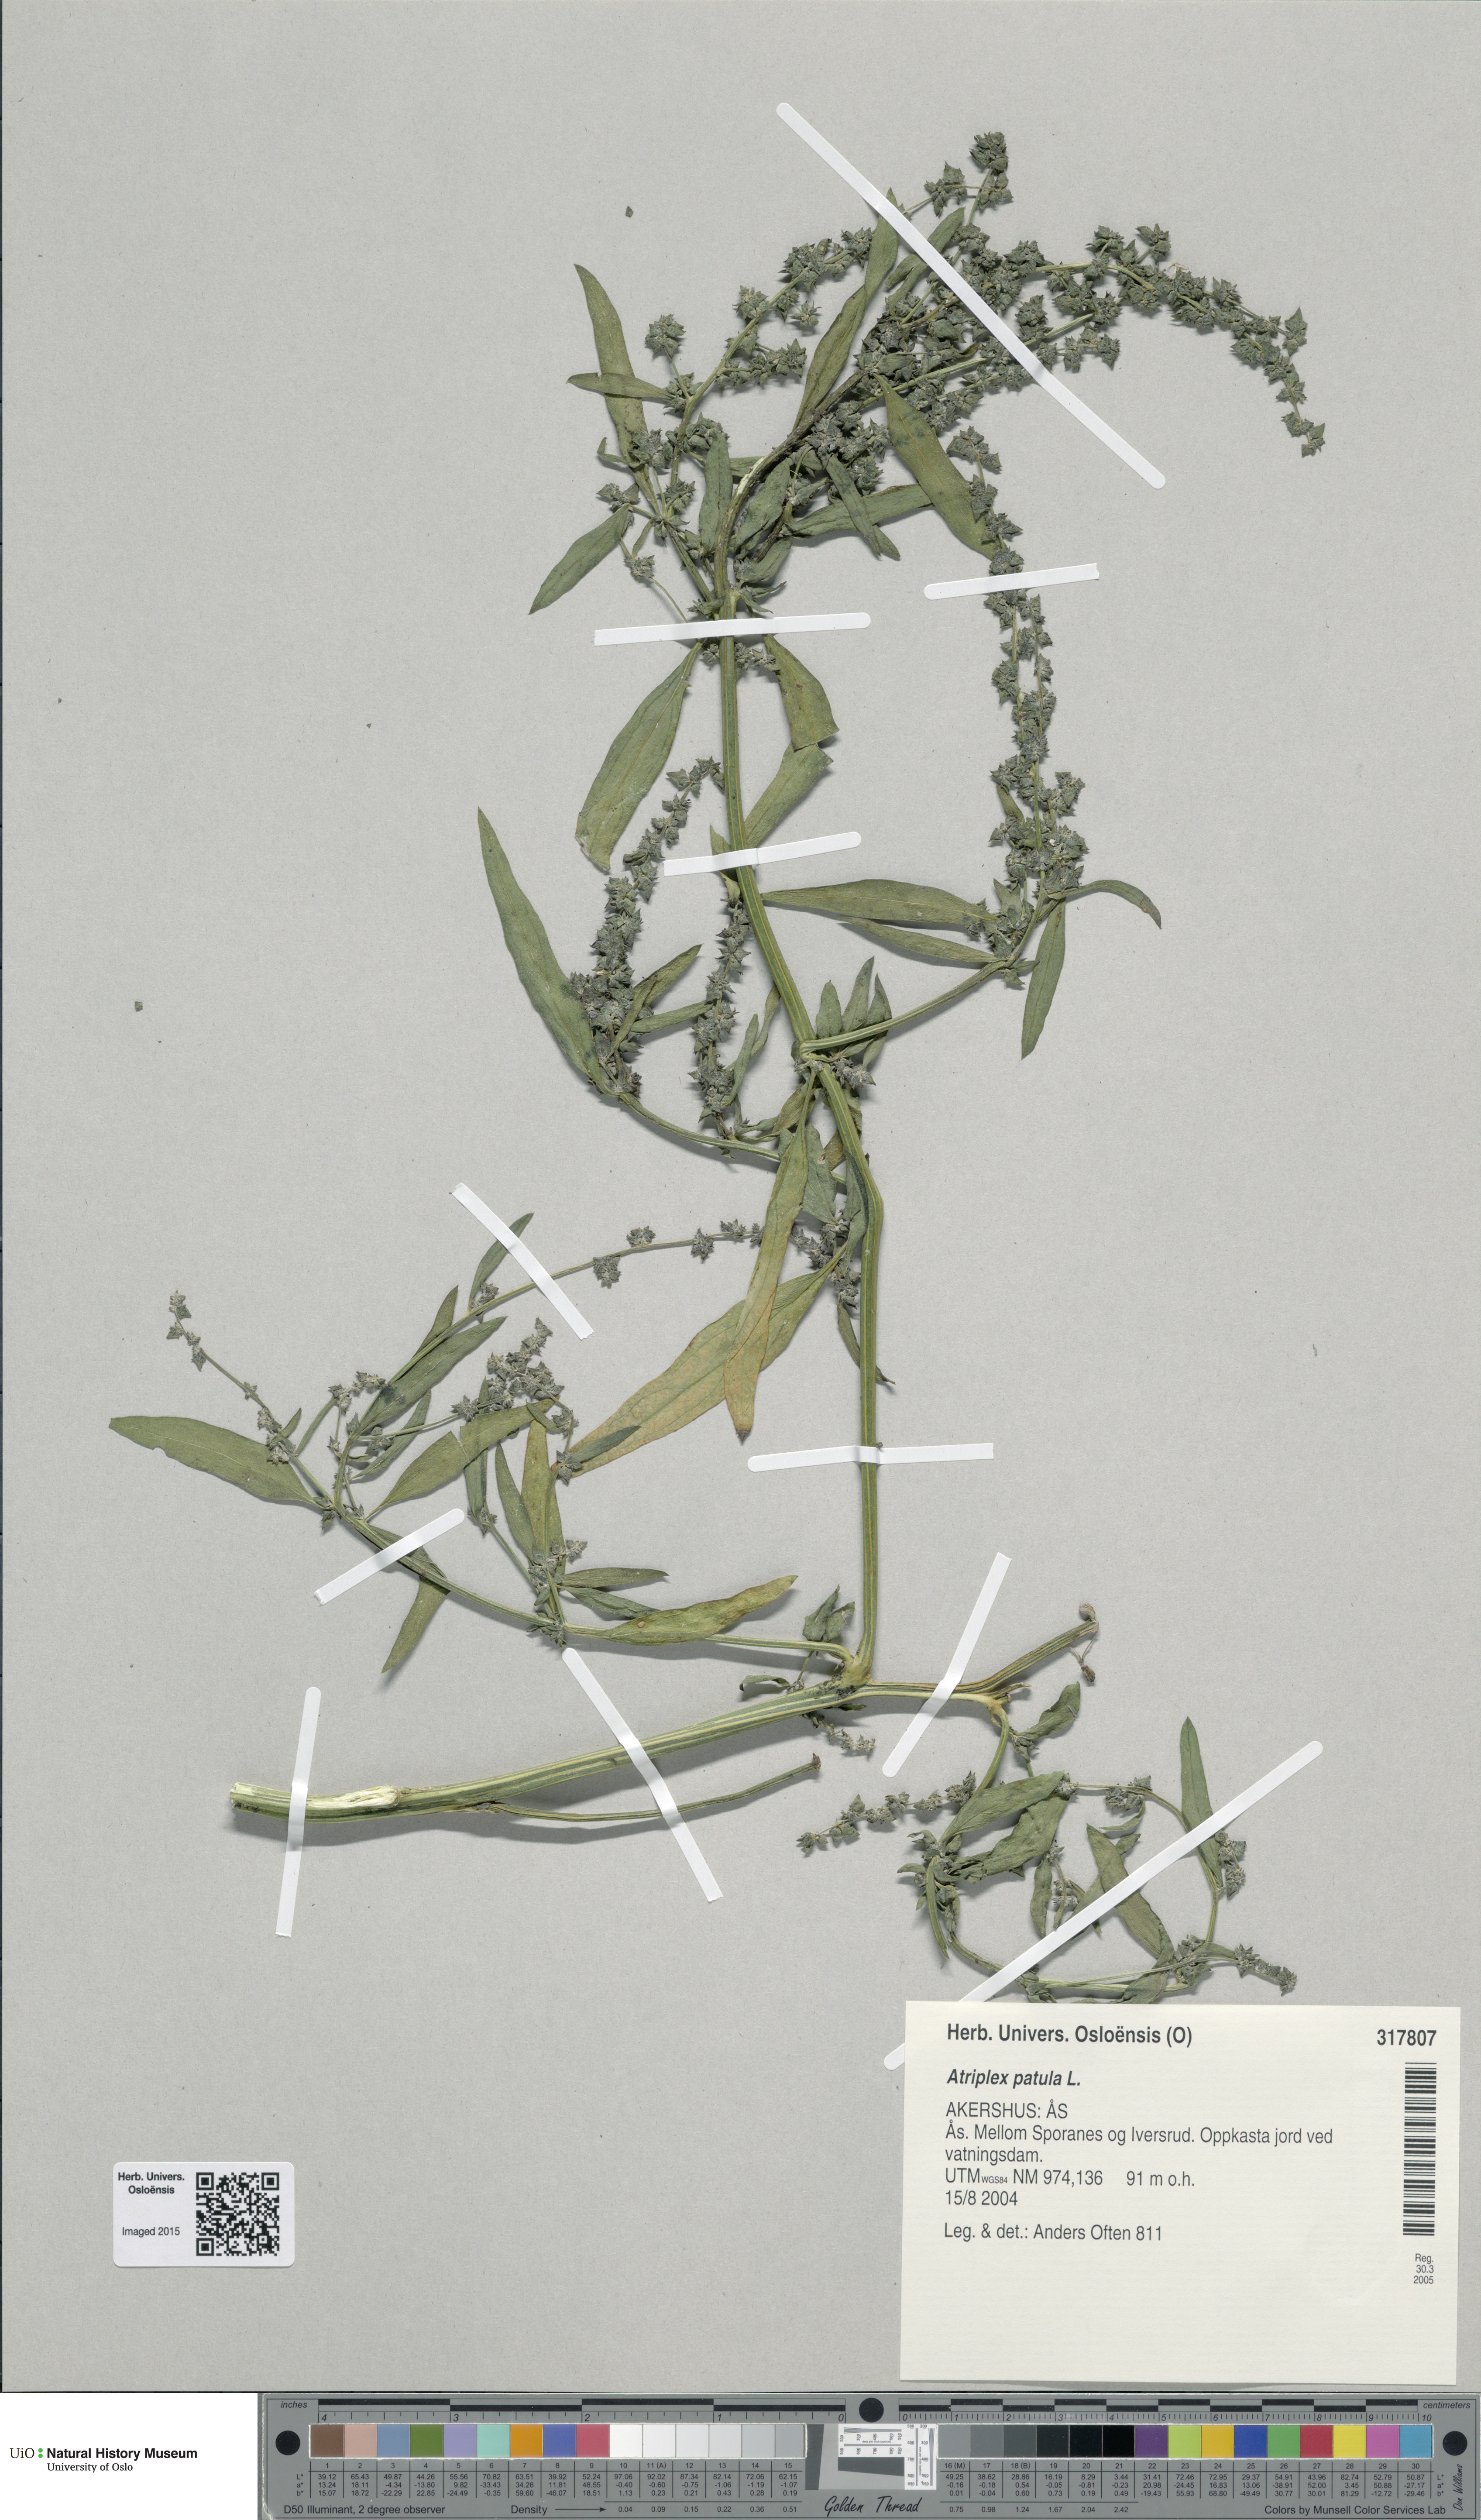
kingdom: Plantae
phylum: Tracheophyta
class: Magnoliopsida
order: Caryophyllales
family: Amaranthaceae
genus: Atriplex
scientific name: Atriplex patula
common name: Common orache
